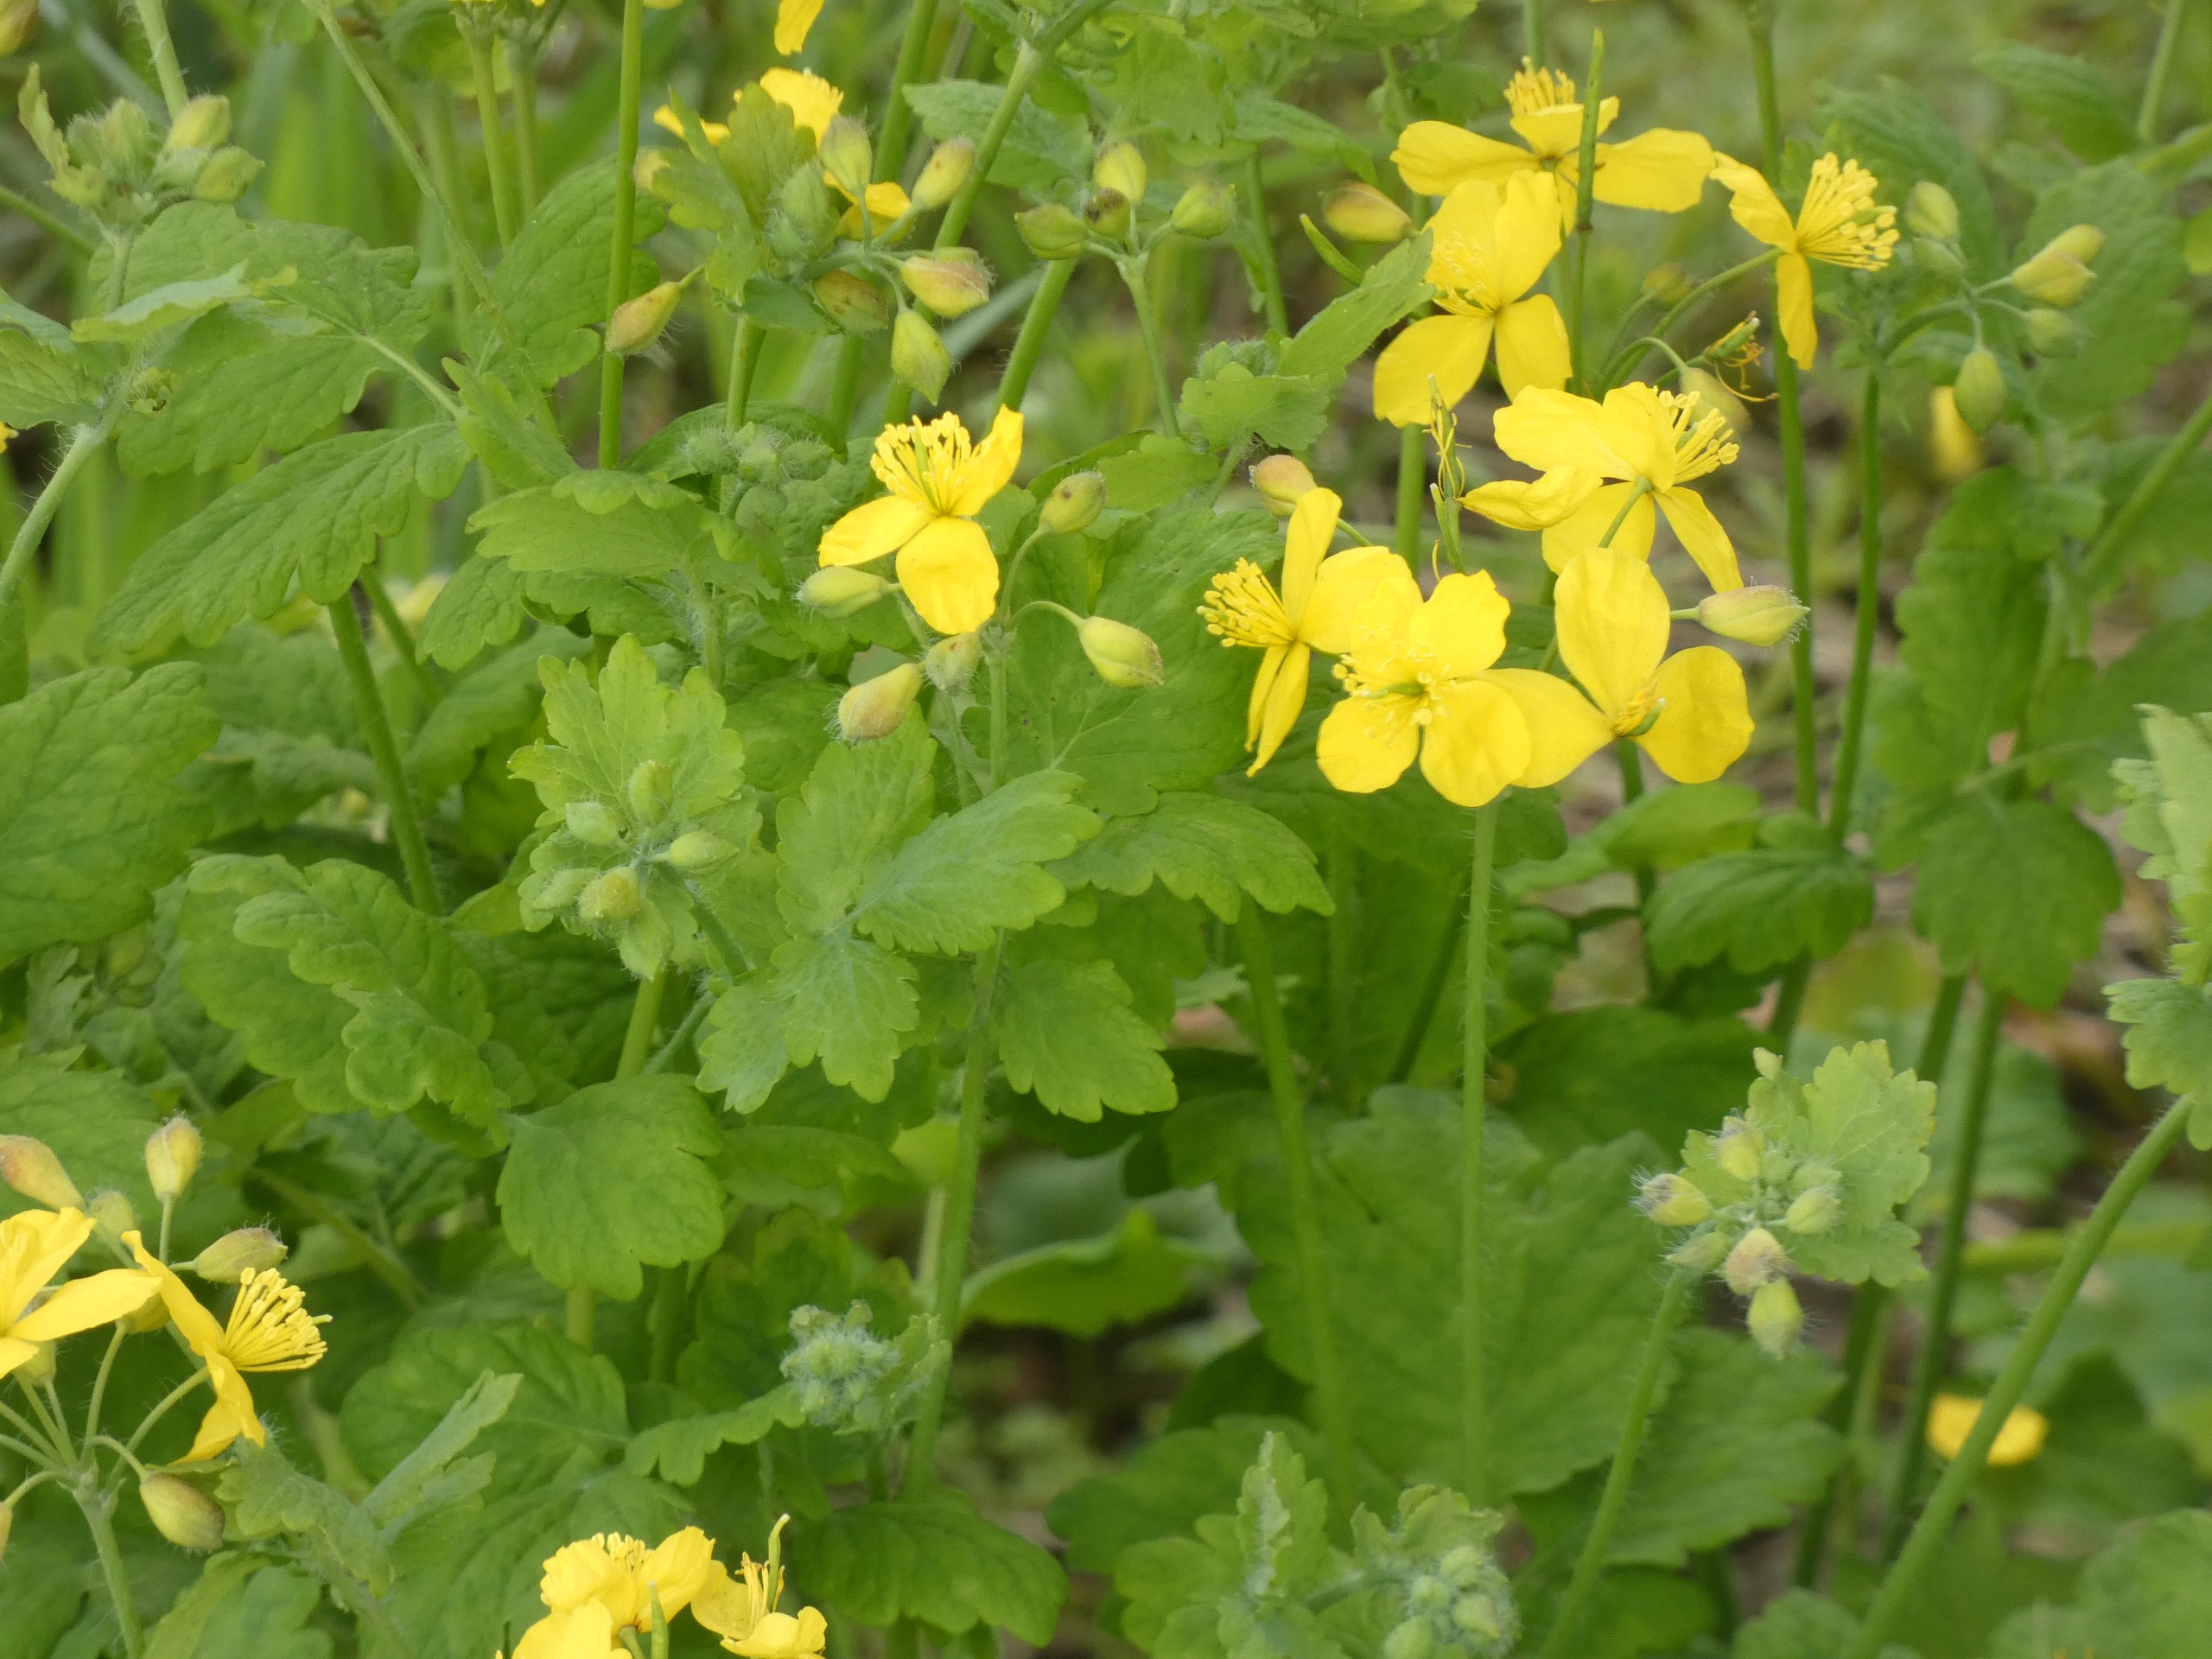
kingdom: Plantae
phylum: Tracheophyta
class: Magnoliopsida
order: Ranunculales
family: Papaveraceae
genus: Chelidonium
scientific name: Chelidonium majus
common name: Svaleurt
